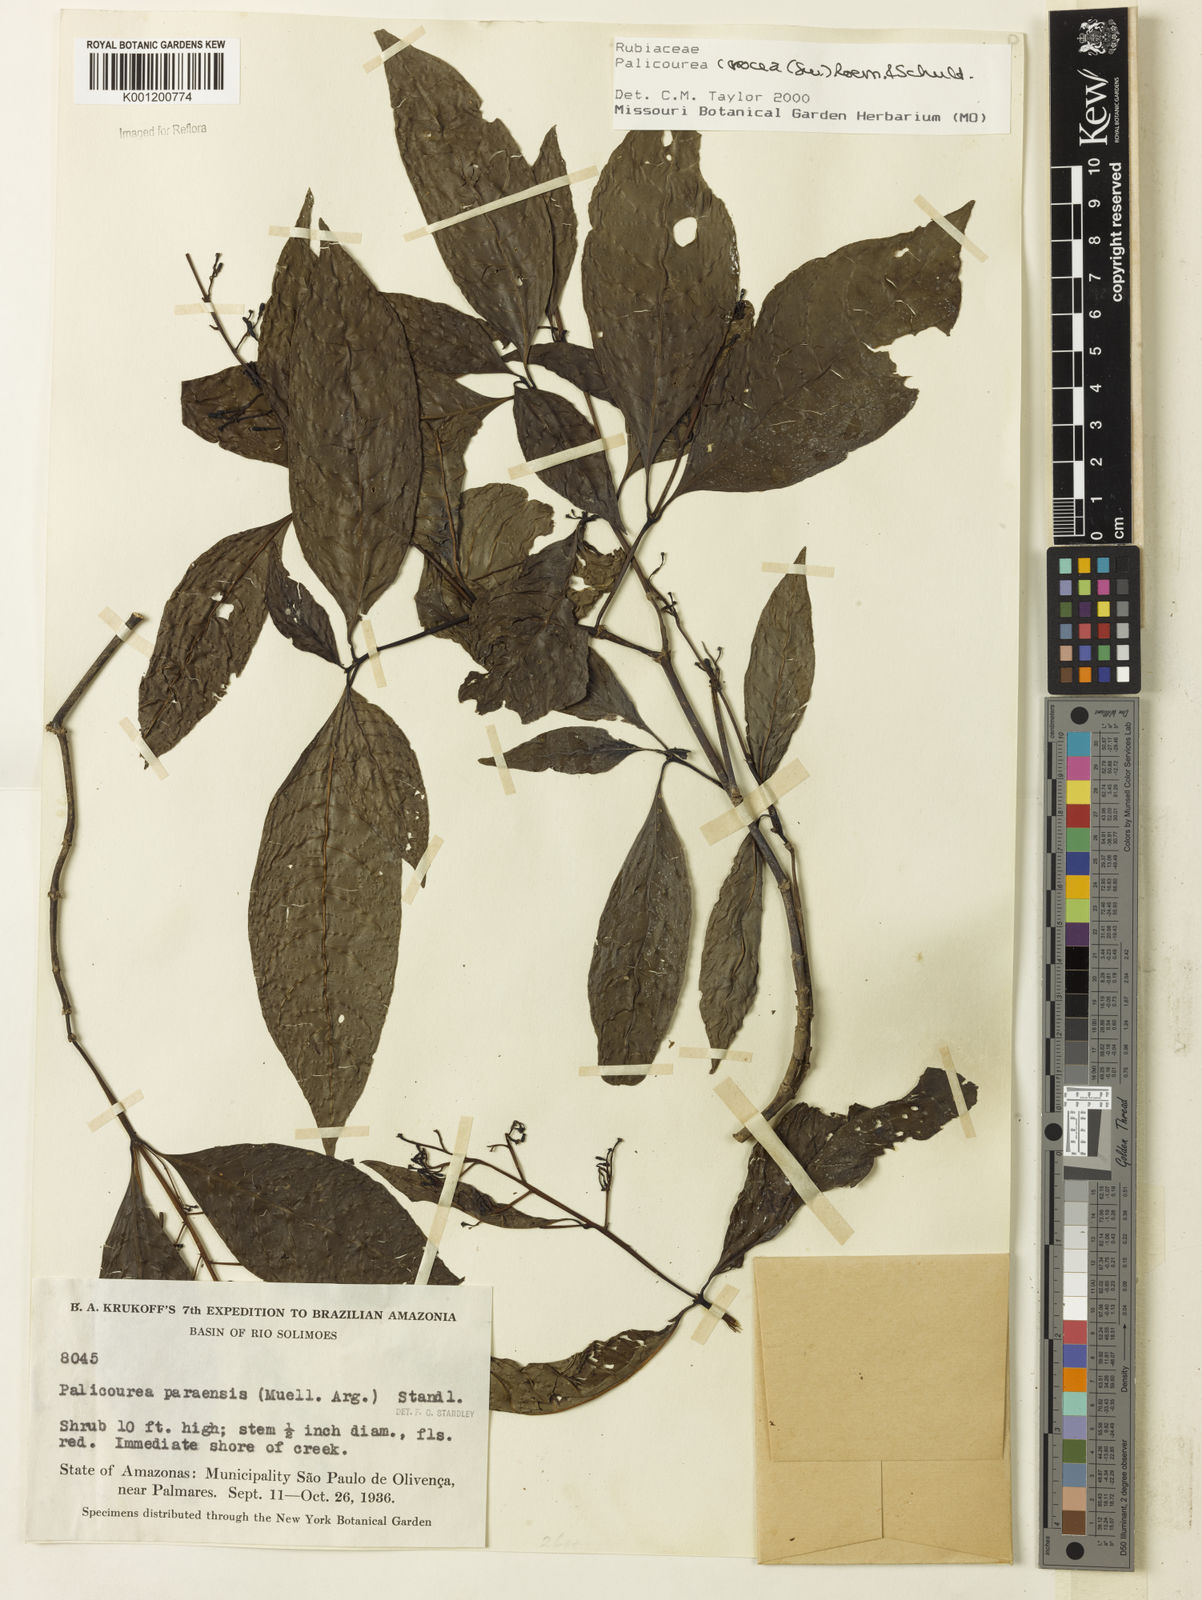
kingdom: Plantae
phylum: Tracheophyta
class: Magnoliopsida
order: Gentianales
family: Rubiaceae
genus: Palicourea
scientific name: Palicourea crocea
